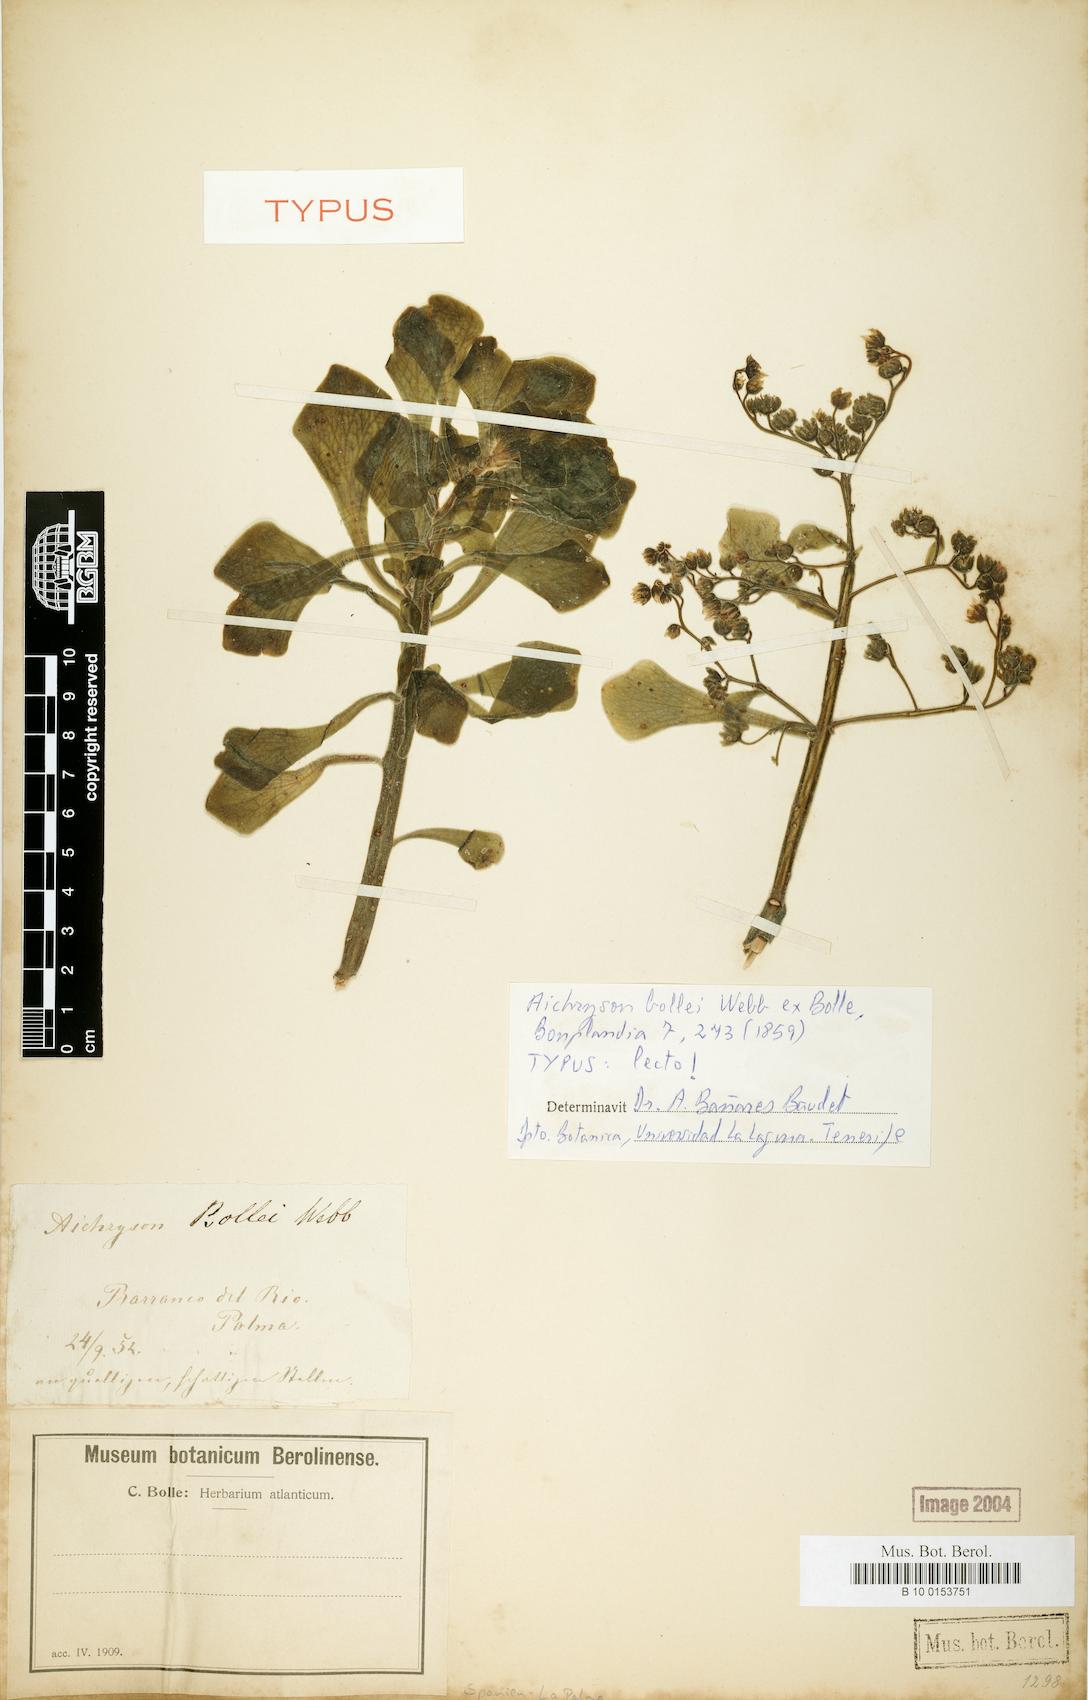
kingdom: Plantae
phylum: Tracheophyta
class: Magnoliopsida
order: Saxifragales
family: Crassulaceae
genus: Aichryson
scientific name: Aichryson bollei
